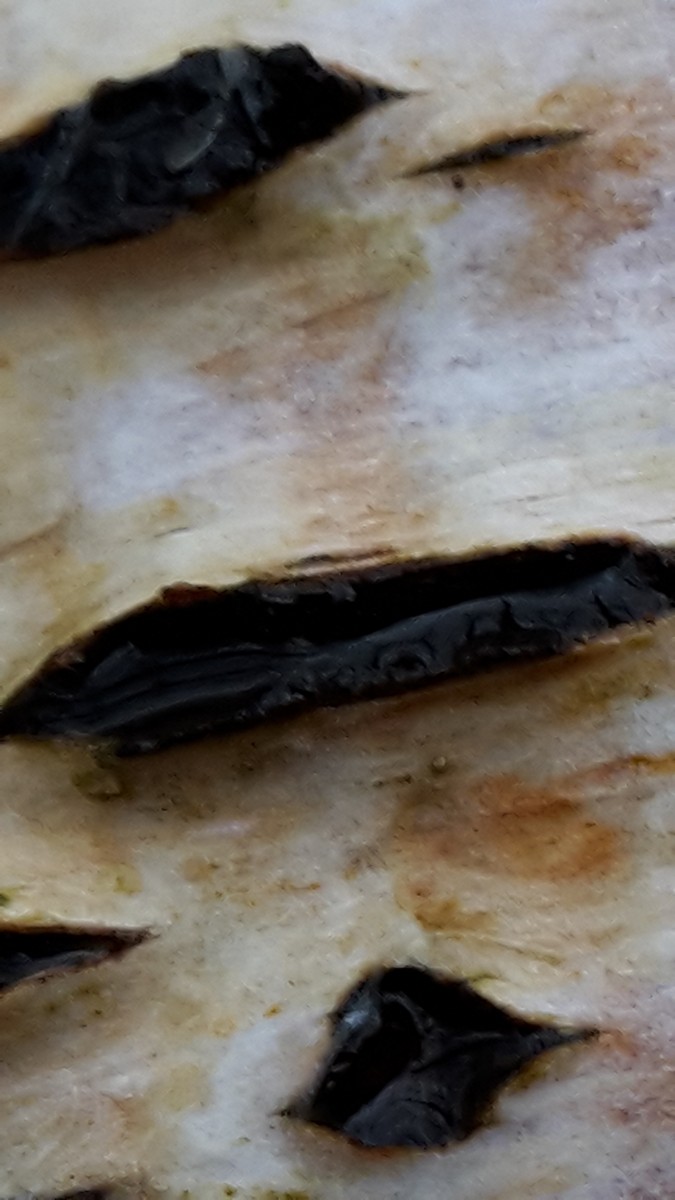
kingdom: Fungi
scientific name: Fungi
